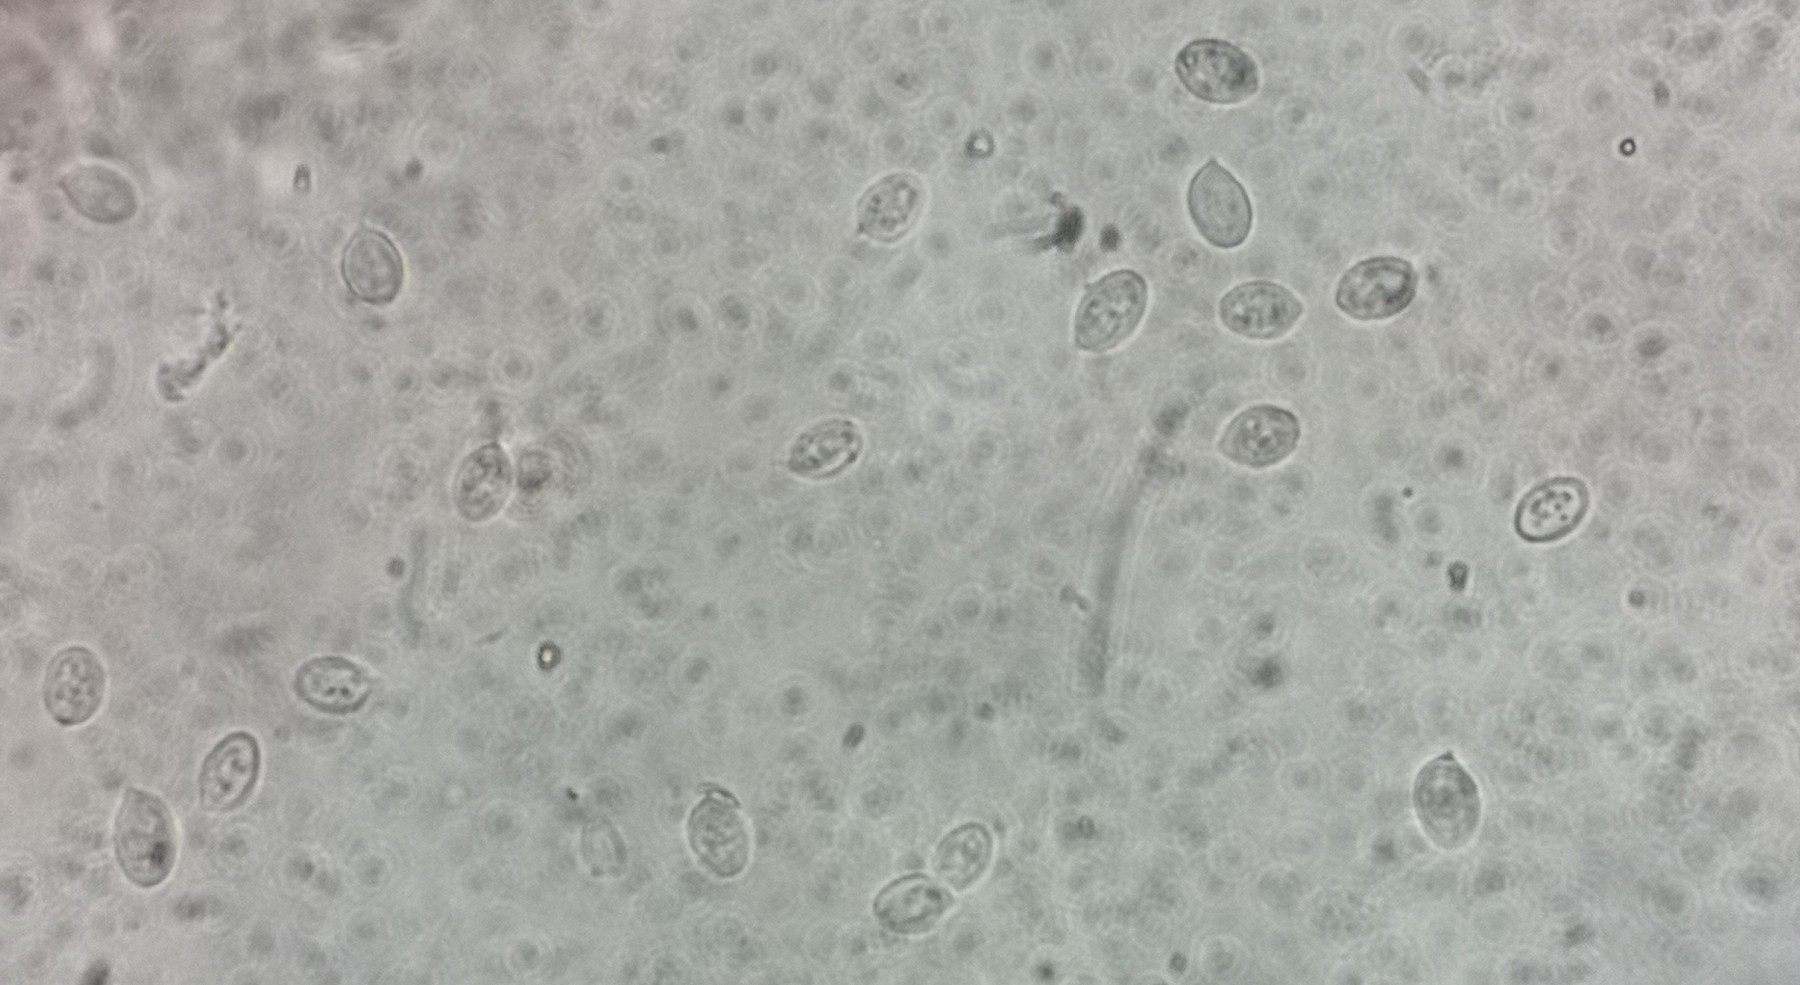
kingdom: Fungi
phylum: Basidiomycota
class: Agaricomycetes
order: Agaricales
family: Entolomataceae
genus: Clitopilus
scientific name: Clitopilus
